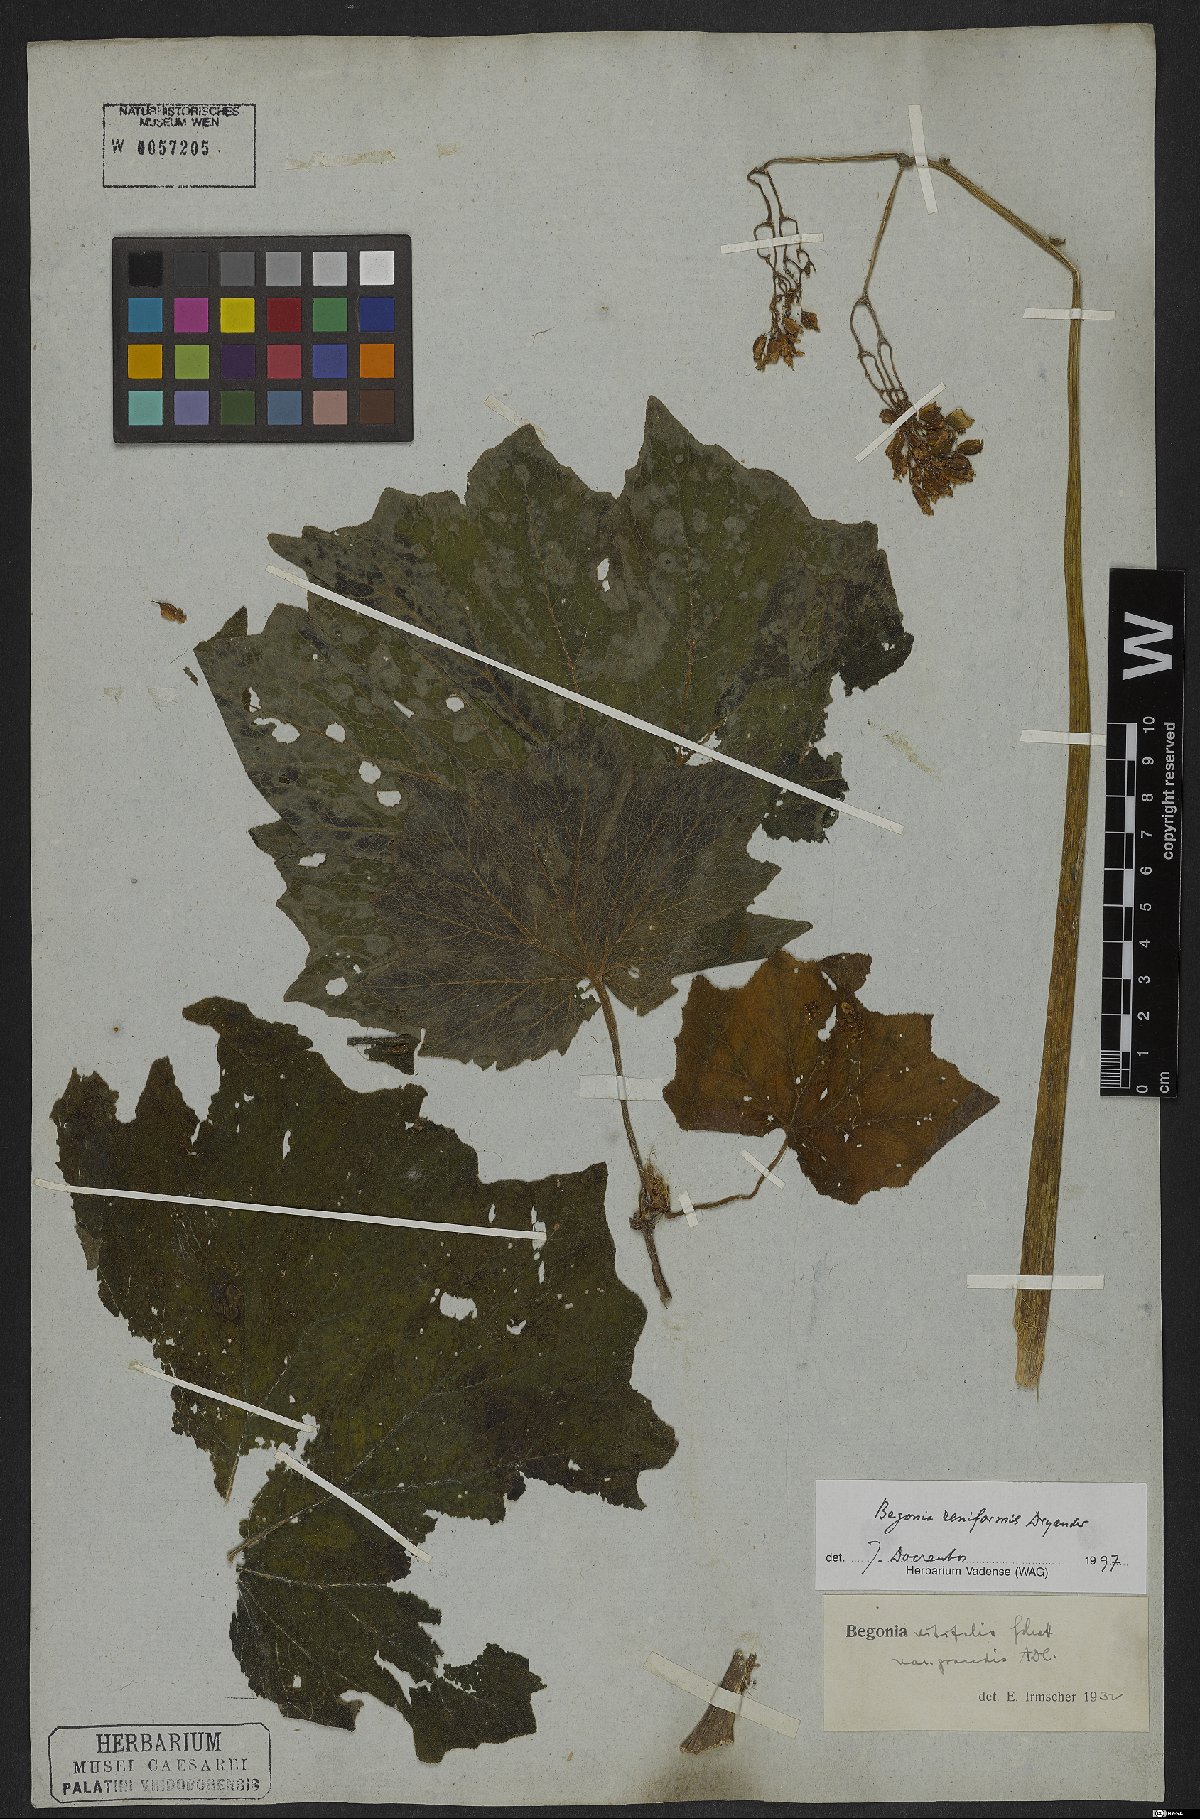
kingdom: Plantae
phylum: Tracheophyta
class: Magnoliopsida
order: Cucurbitales
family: Begoniaceae
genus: Begonia
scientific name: Begonia reniformis
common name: Grapeleaf begonia
